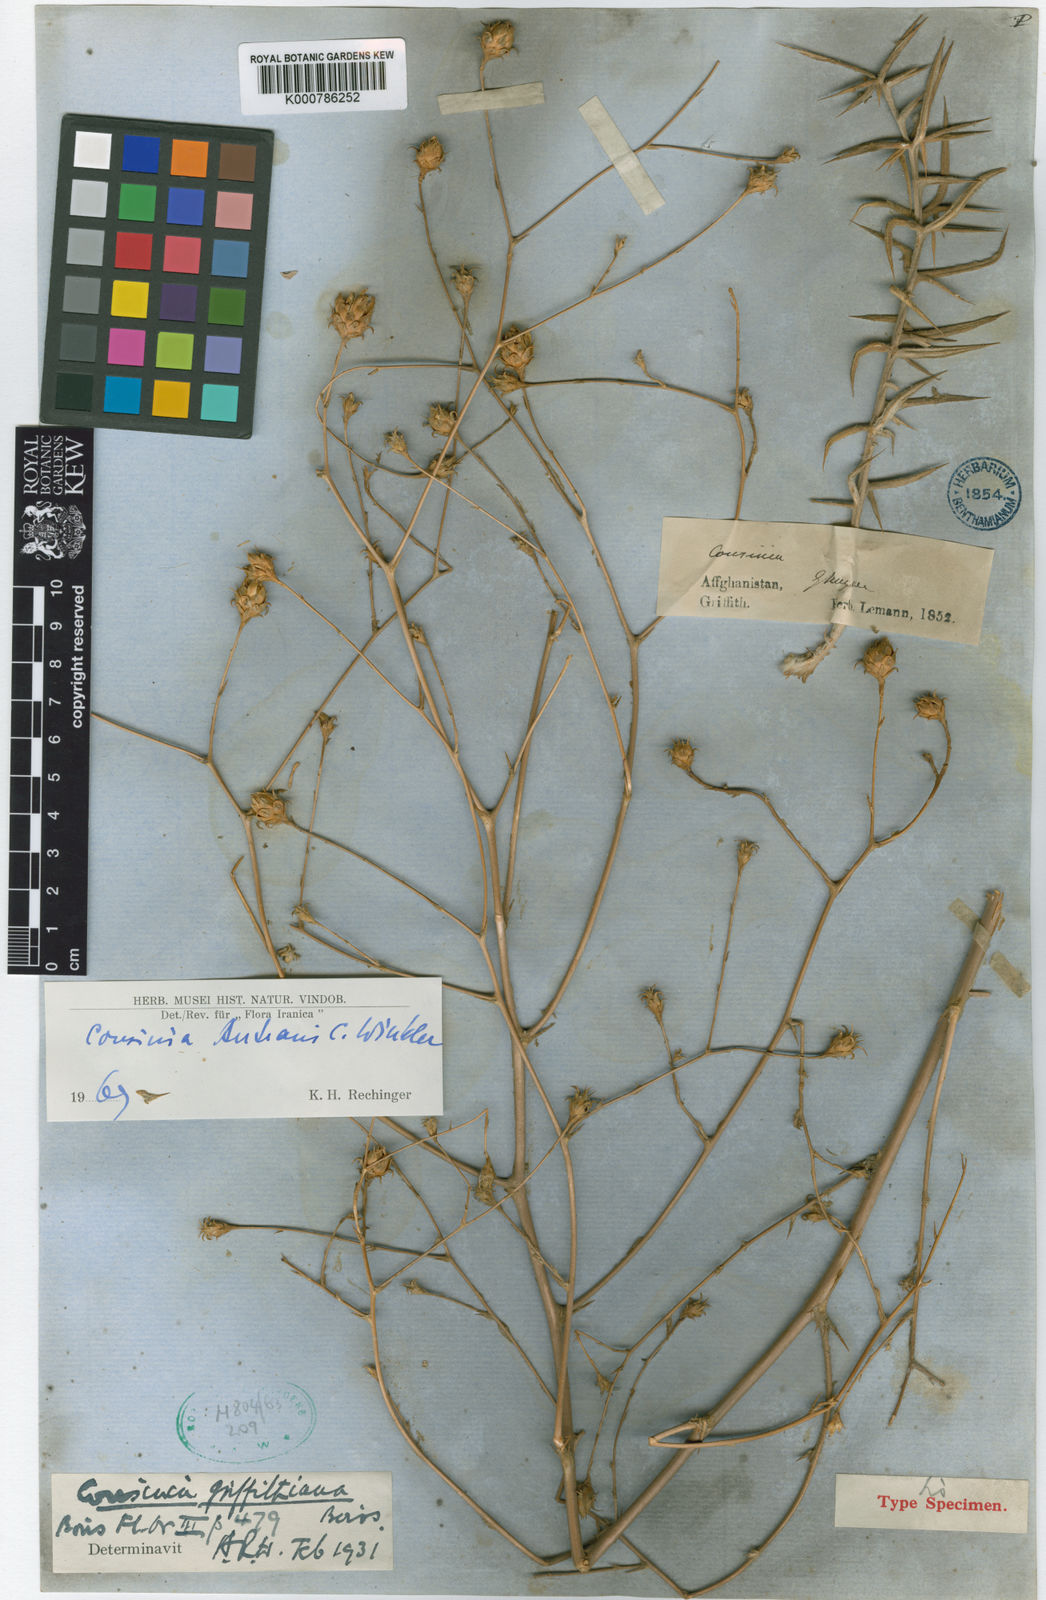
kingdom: Plantae
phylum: Tracheophyta
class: Magnoliopsida
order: Asterales
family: Asteraceae
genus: Cousinia
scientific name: Cousinia autranii
